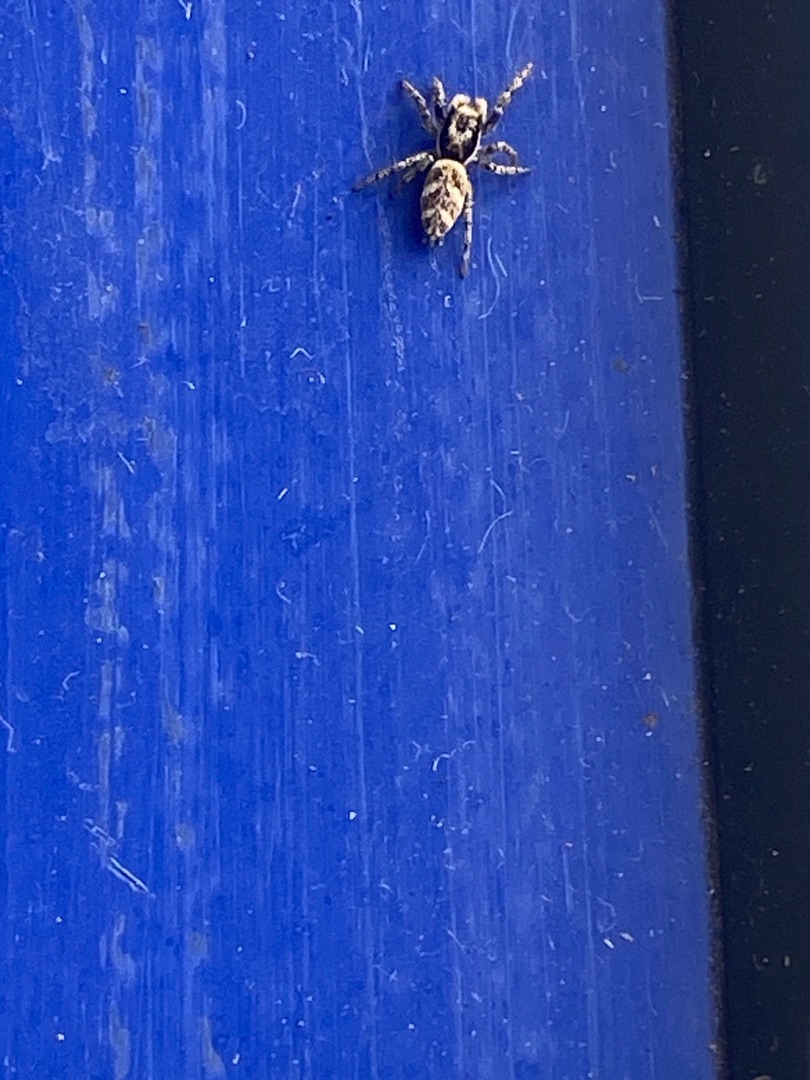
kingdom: Animalia
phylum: Arthropoda
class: Arachnida
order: Araneae
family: Salticidae
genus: Salticus
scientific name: Salticus scenicus
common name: Almindelig zebraedderkop
